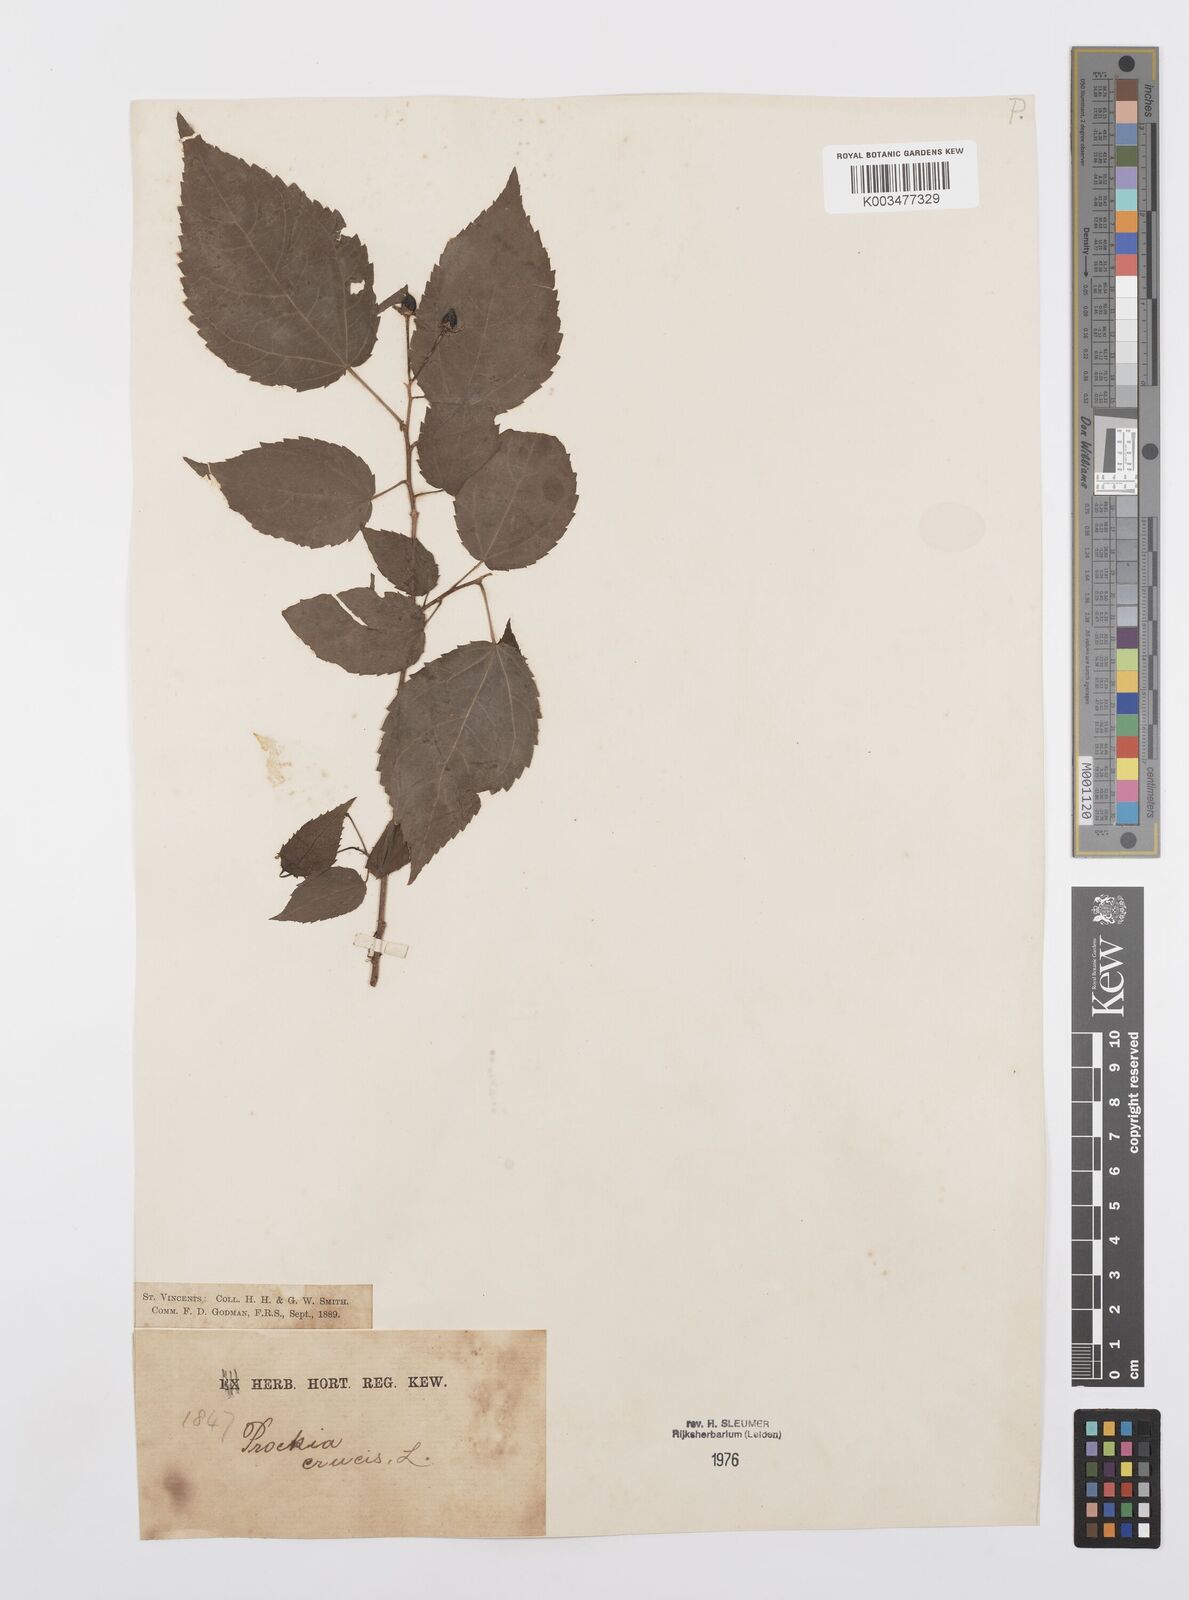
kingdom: Plantae
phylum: Tracheophyta
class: Magnoliopsida
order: Malpighiales
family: Salicaceae
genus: Prockia
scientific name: Prockia crucis
